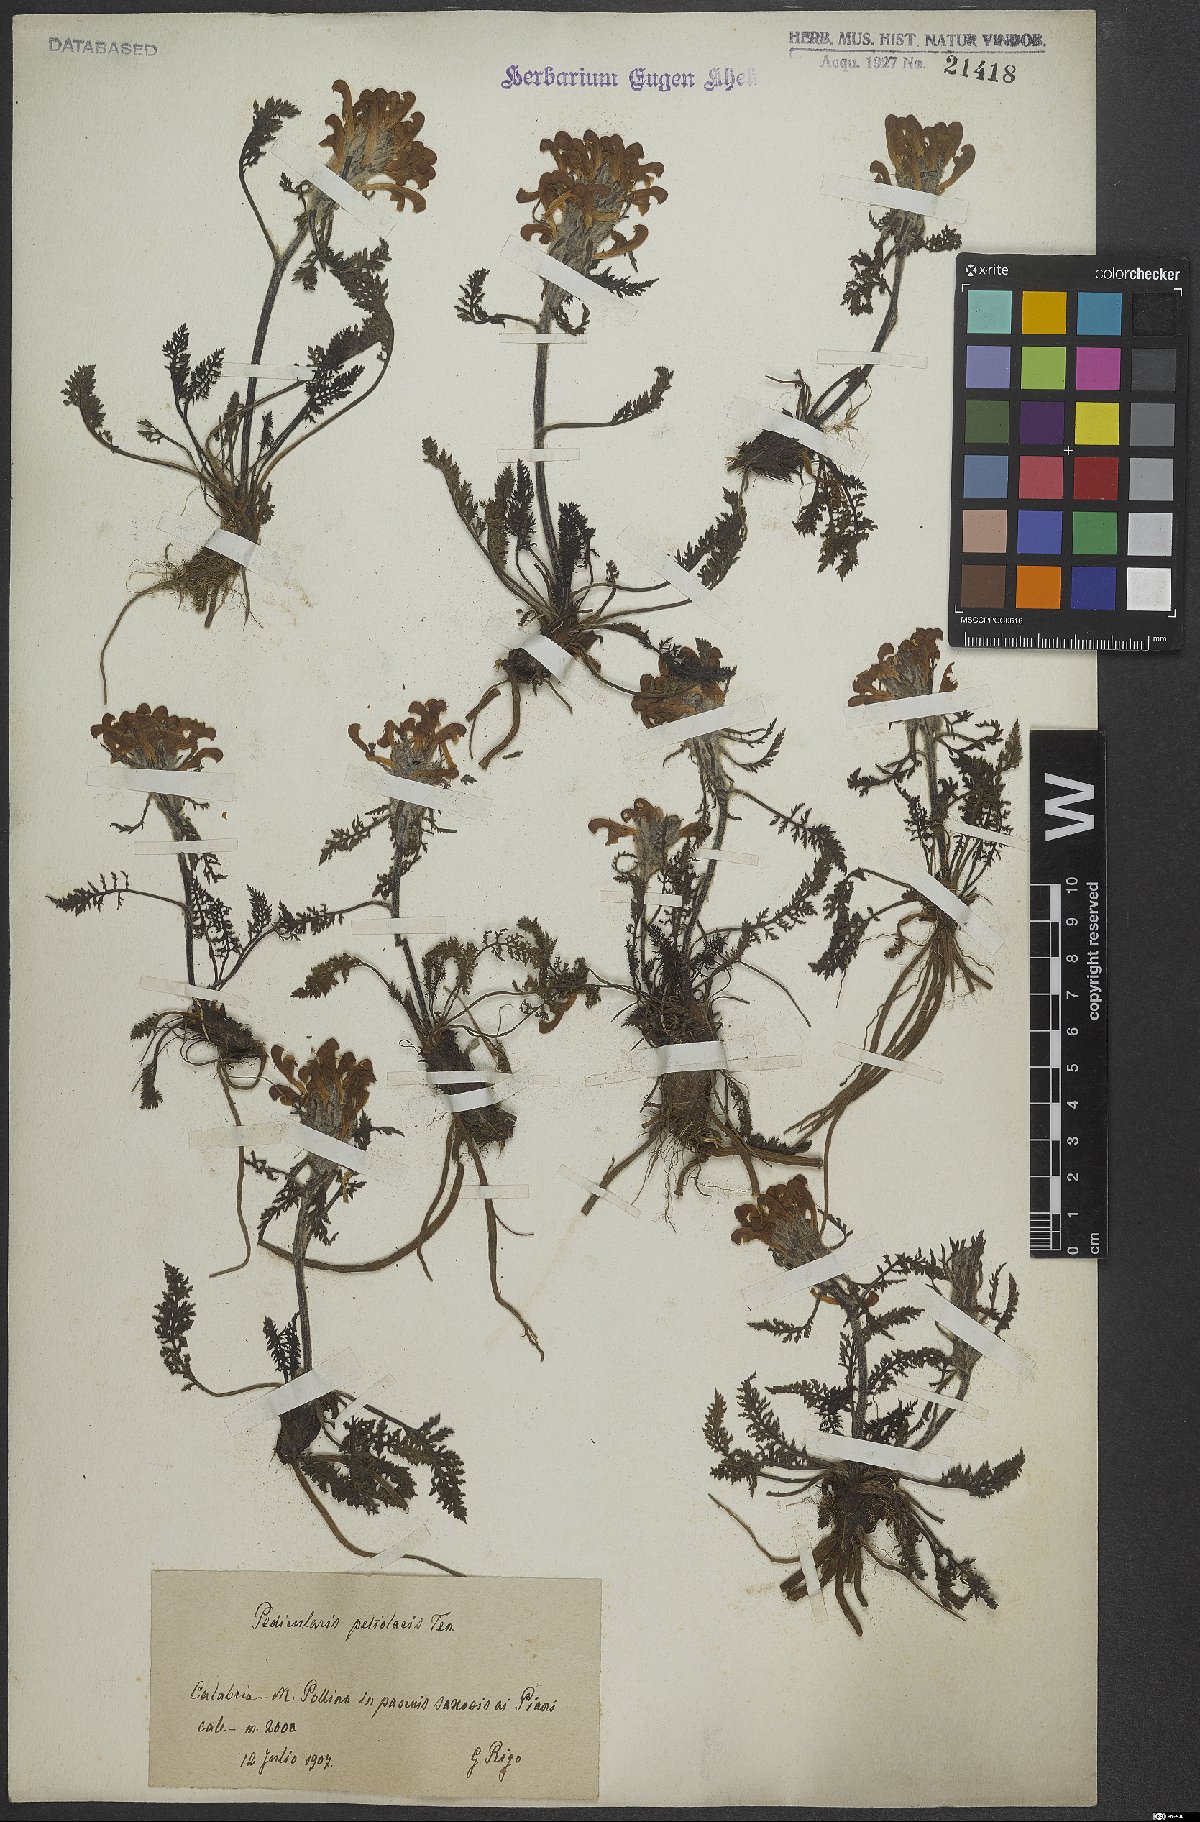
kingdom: Plantae
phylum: Tracheophyta
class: Magnoliopsida
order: Lamiales
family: Orobanchaceae
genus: Pedicularis
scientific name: Pedicularis petiolaris
